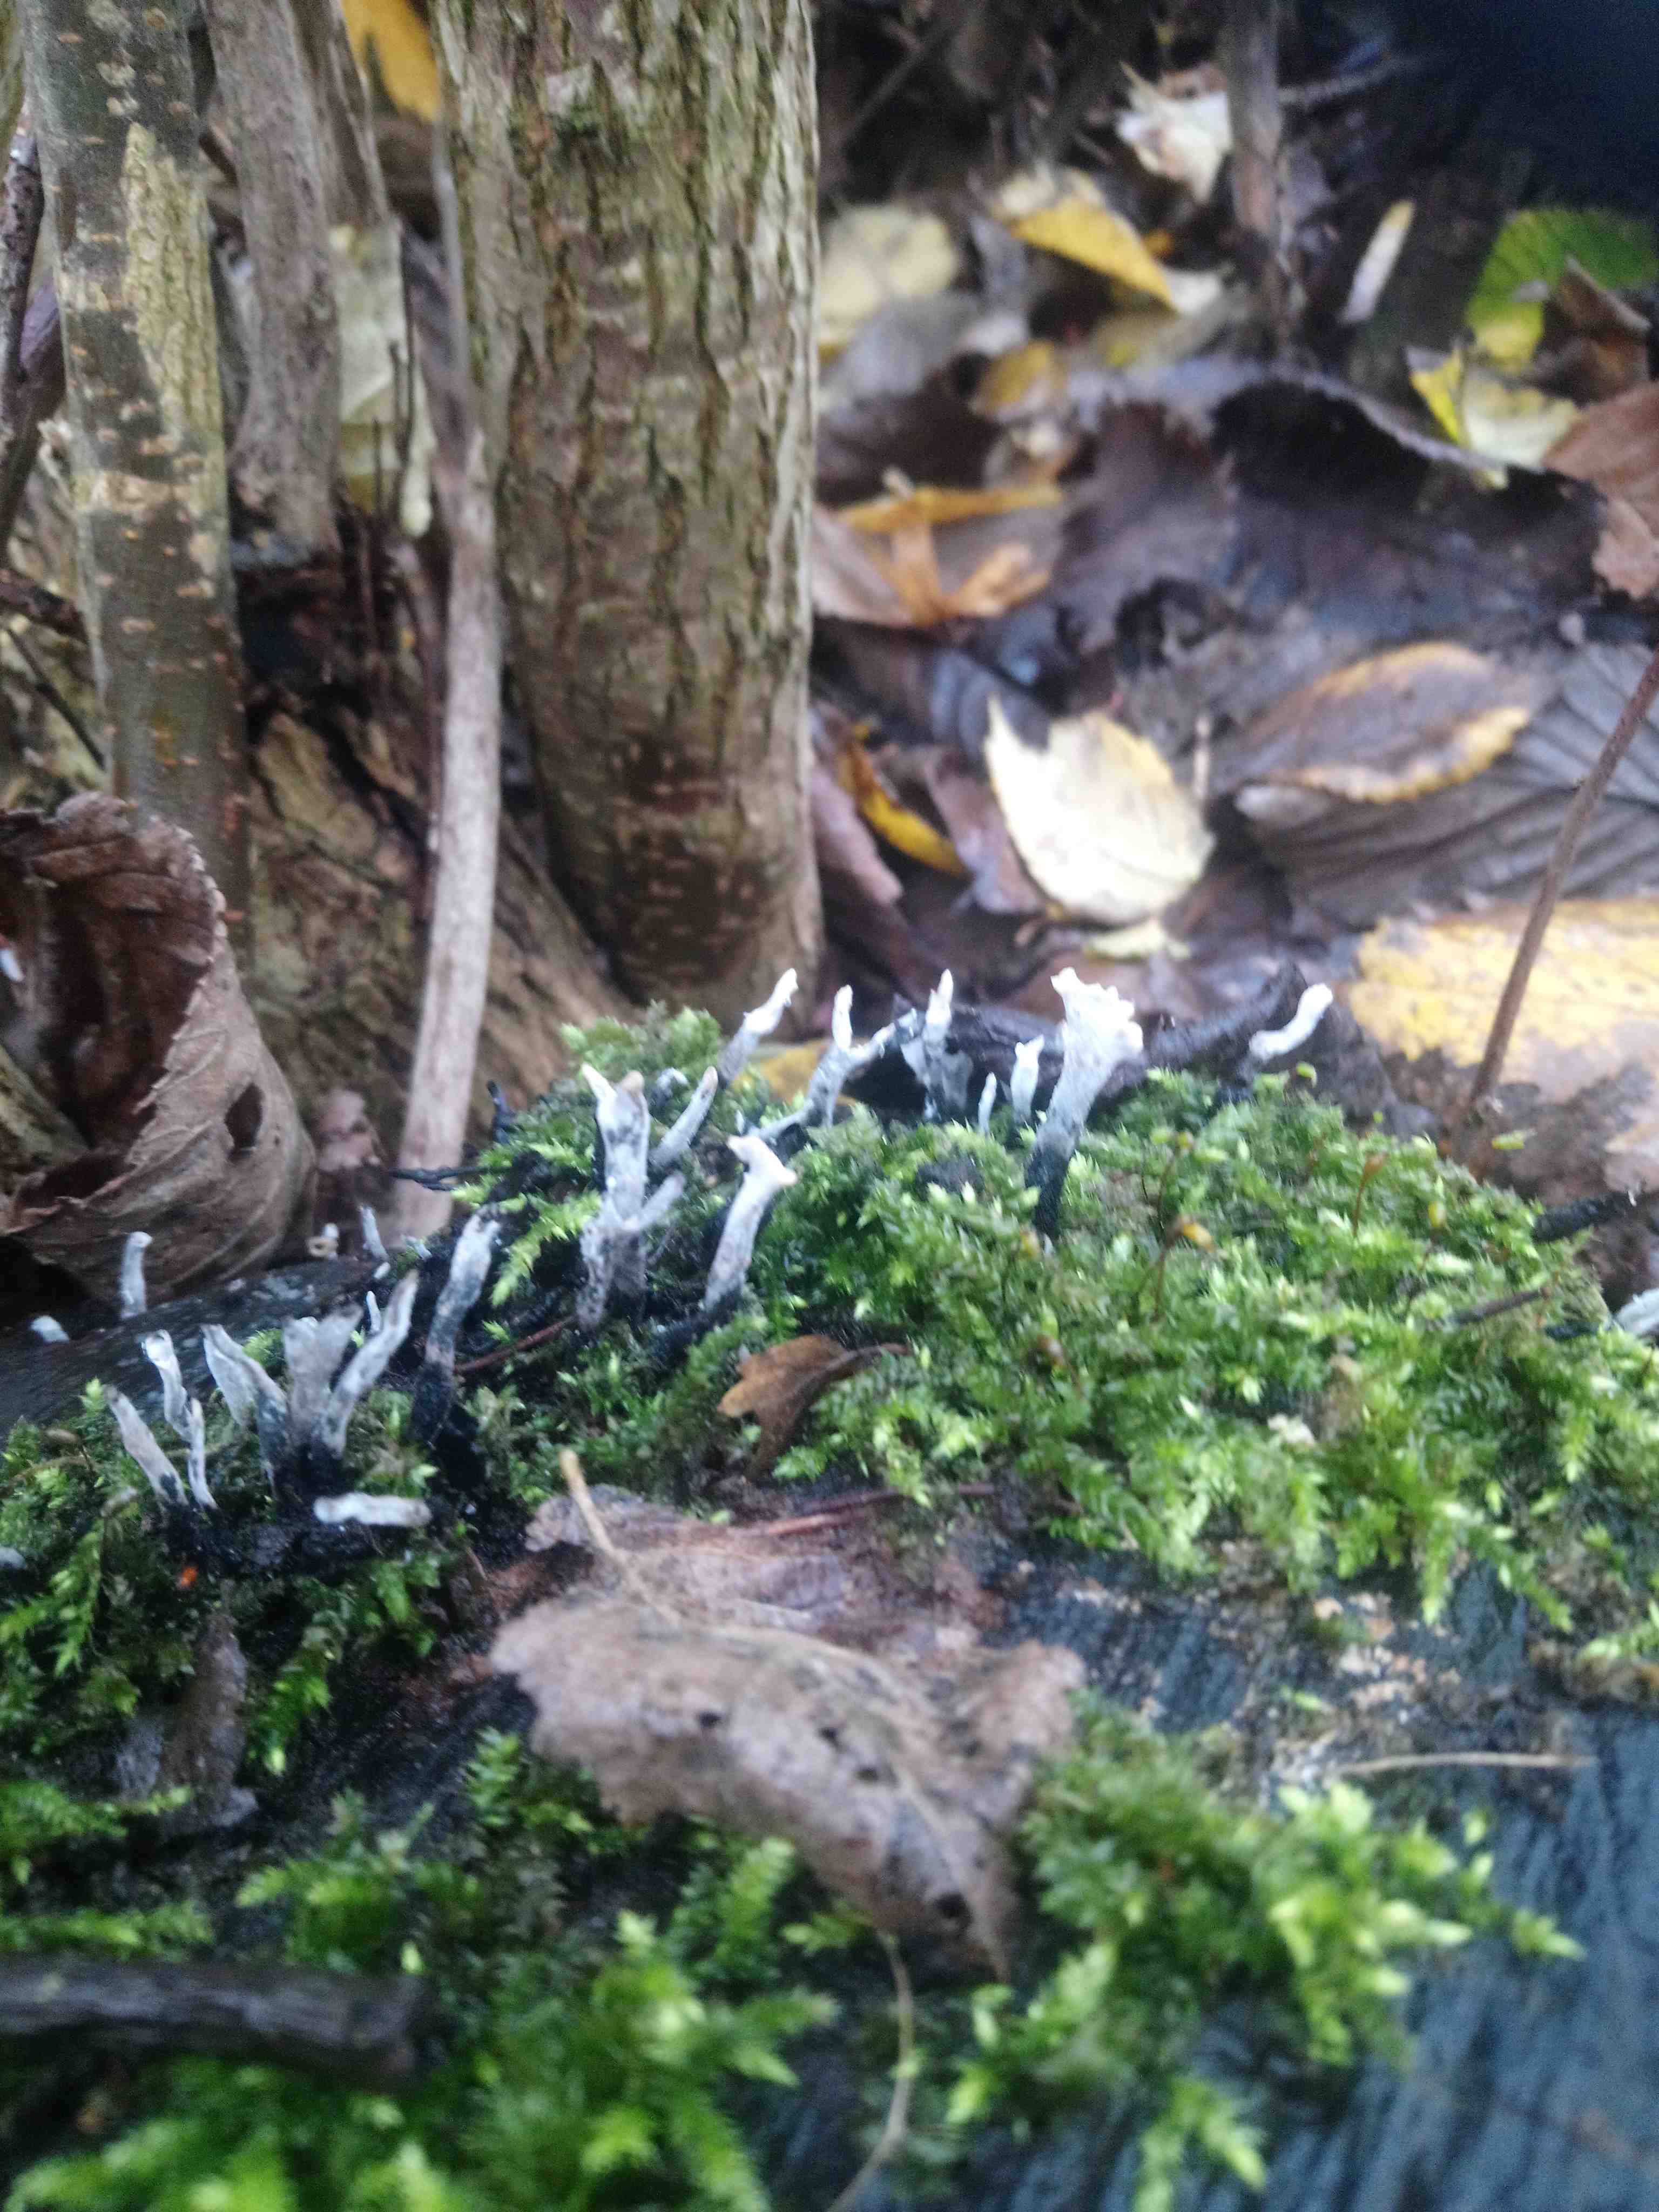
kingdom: Fungi
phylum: Ascomycota
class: Sordariomycetes
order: Xylariales
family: Xylariaceae
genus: Xylaria
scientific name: Xylaria hypoxylon
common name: grenet stødsvamp
